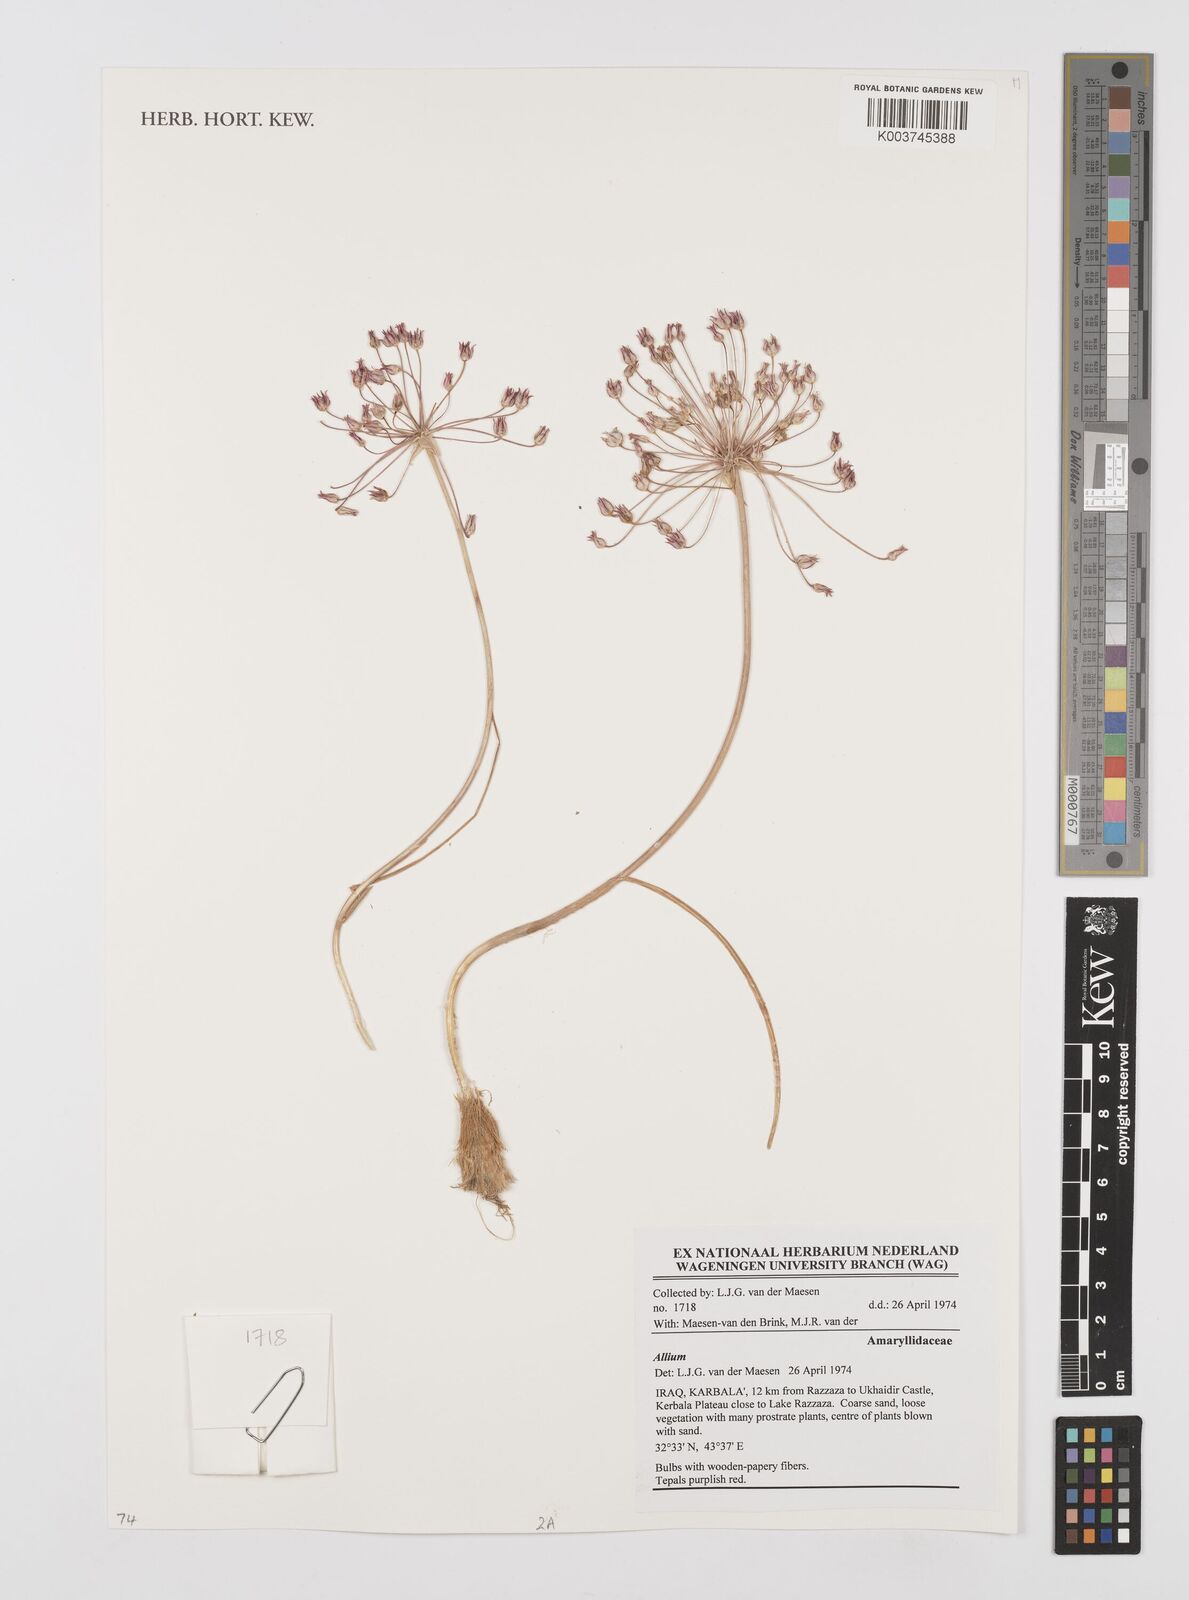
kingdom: Plantae
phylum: Tracheophyta
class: Liliopsida
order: Asparagales
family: Amaryllidaceae
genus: Allium
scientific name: Allium
